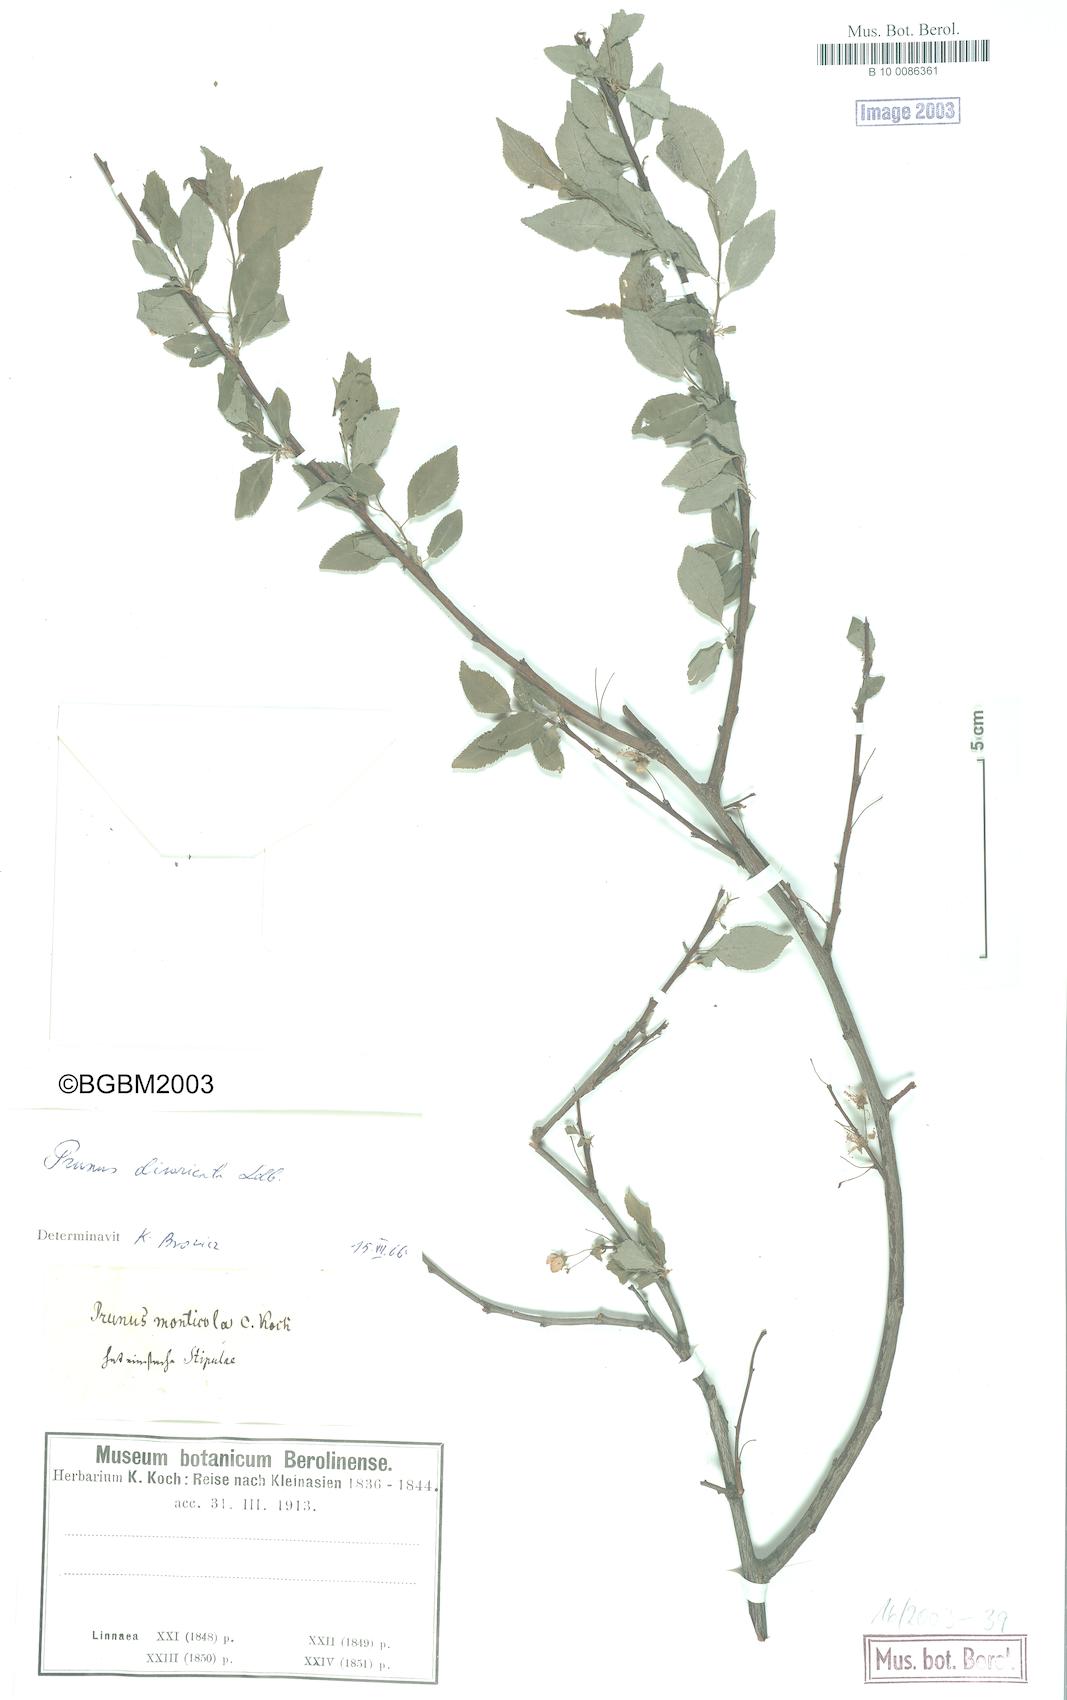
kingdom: Plantae
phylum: Tracheophyta
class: Magnoliopsida
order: Rosales
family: Rosaceae
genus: Prunus
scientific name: Prunus cerasifera
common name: Cherry plum
